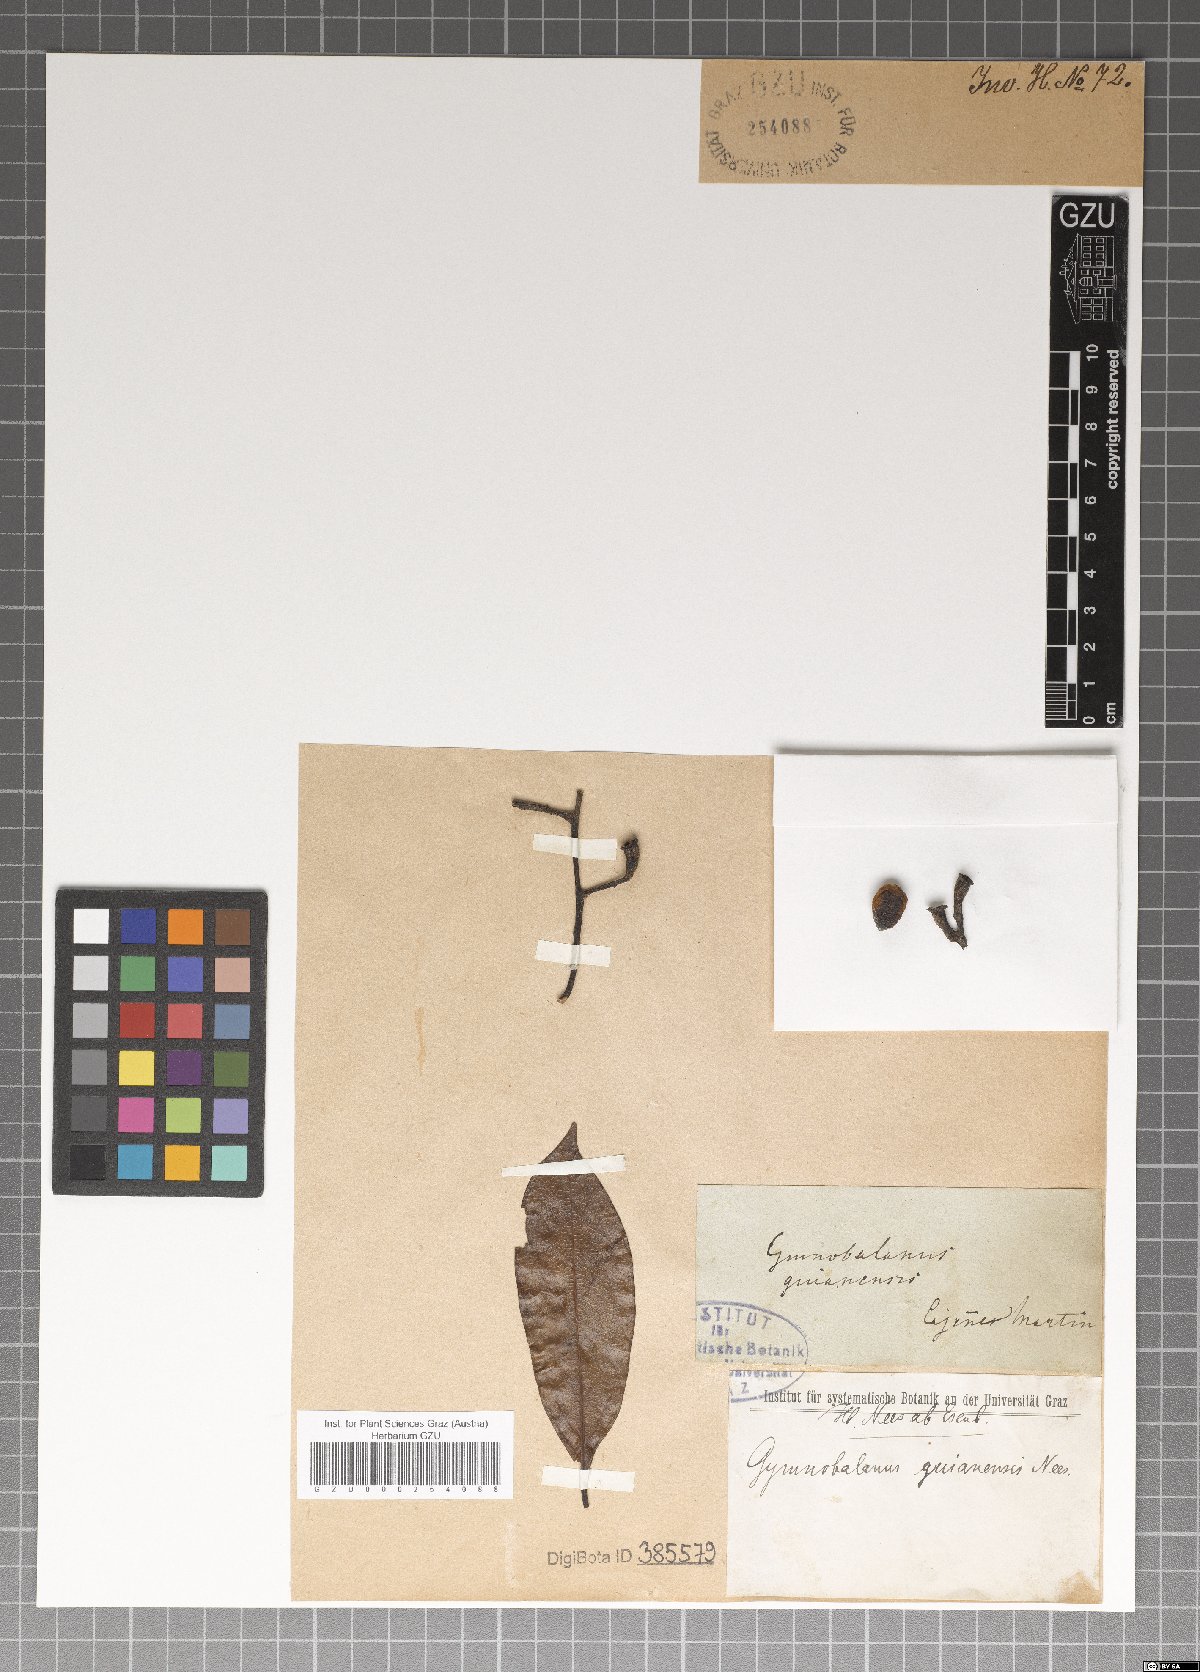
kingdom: Plantae
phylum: Tracheophyta
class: Magnoliopsida
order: Laurales
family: Lauraceae
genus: Ocotea
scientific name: Ocotea guianensis
